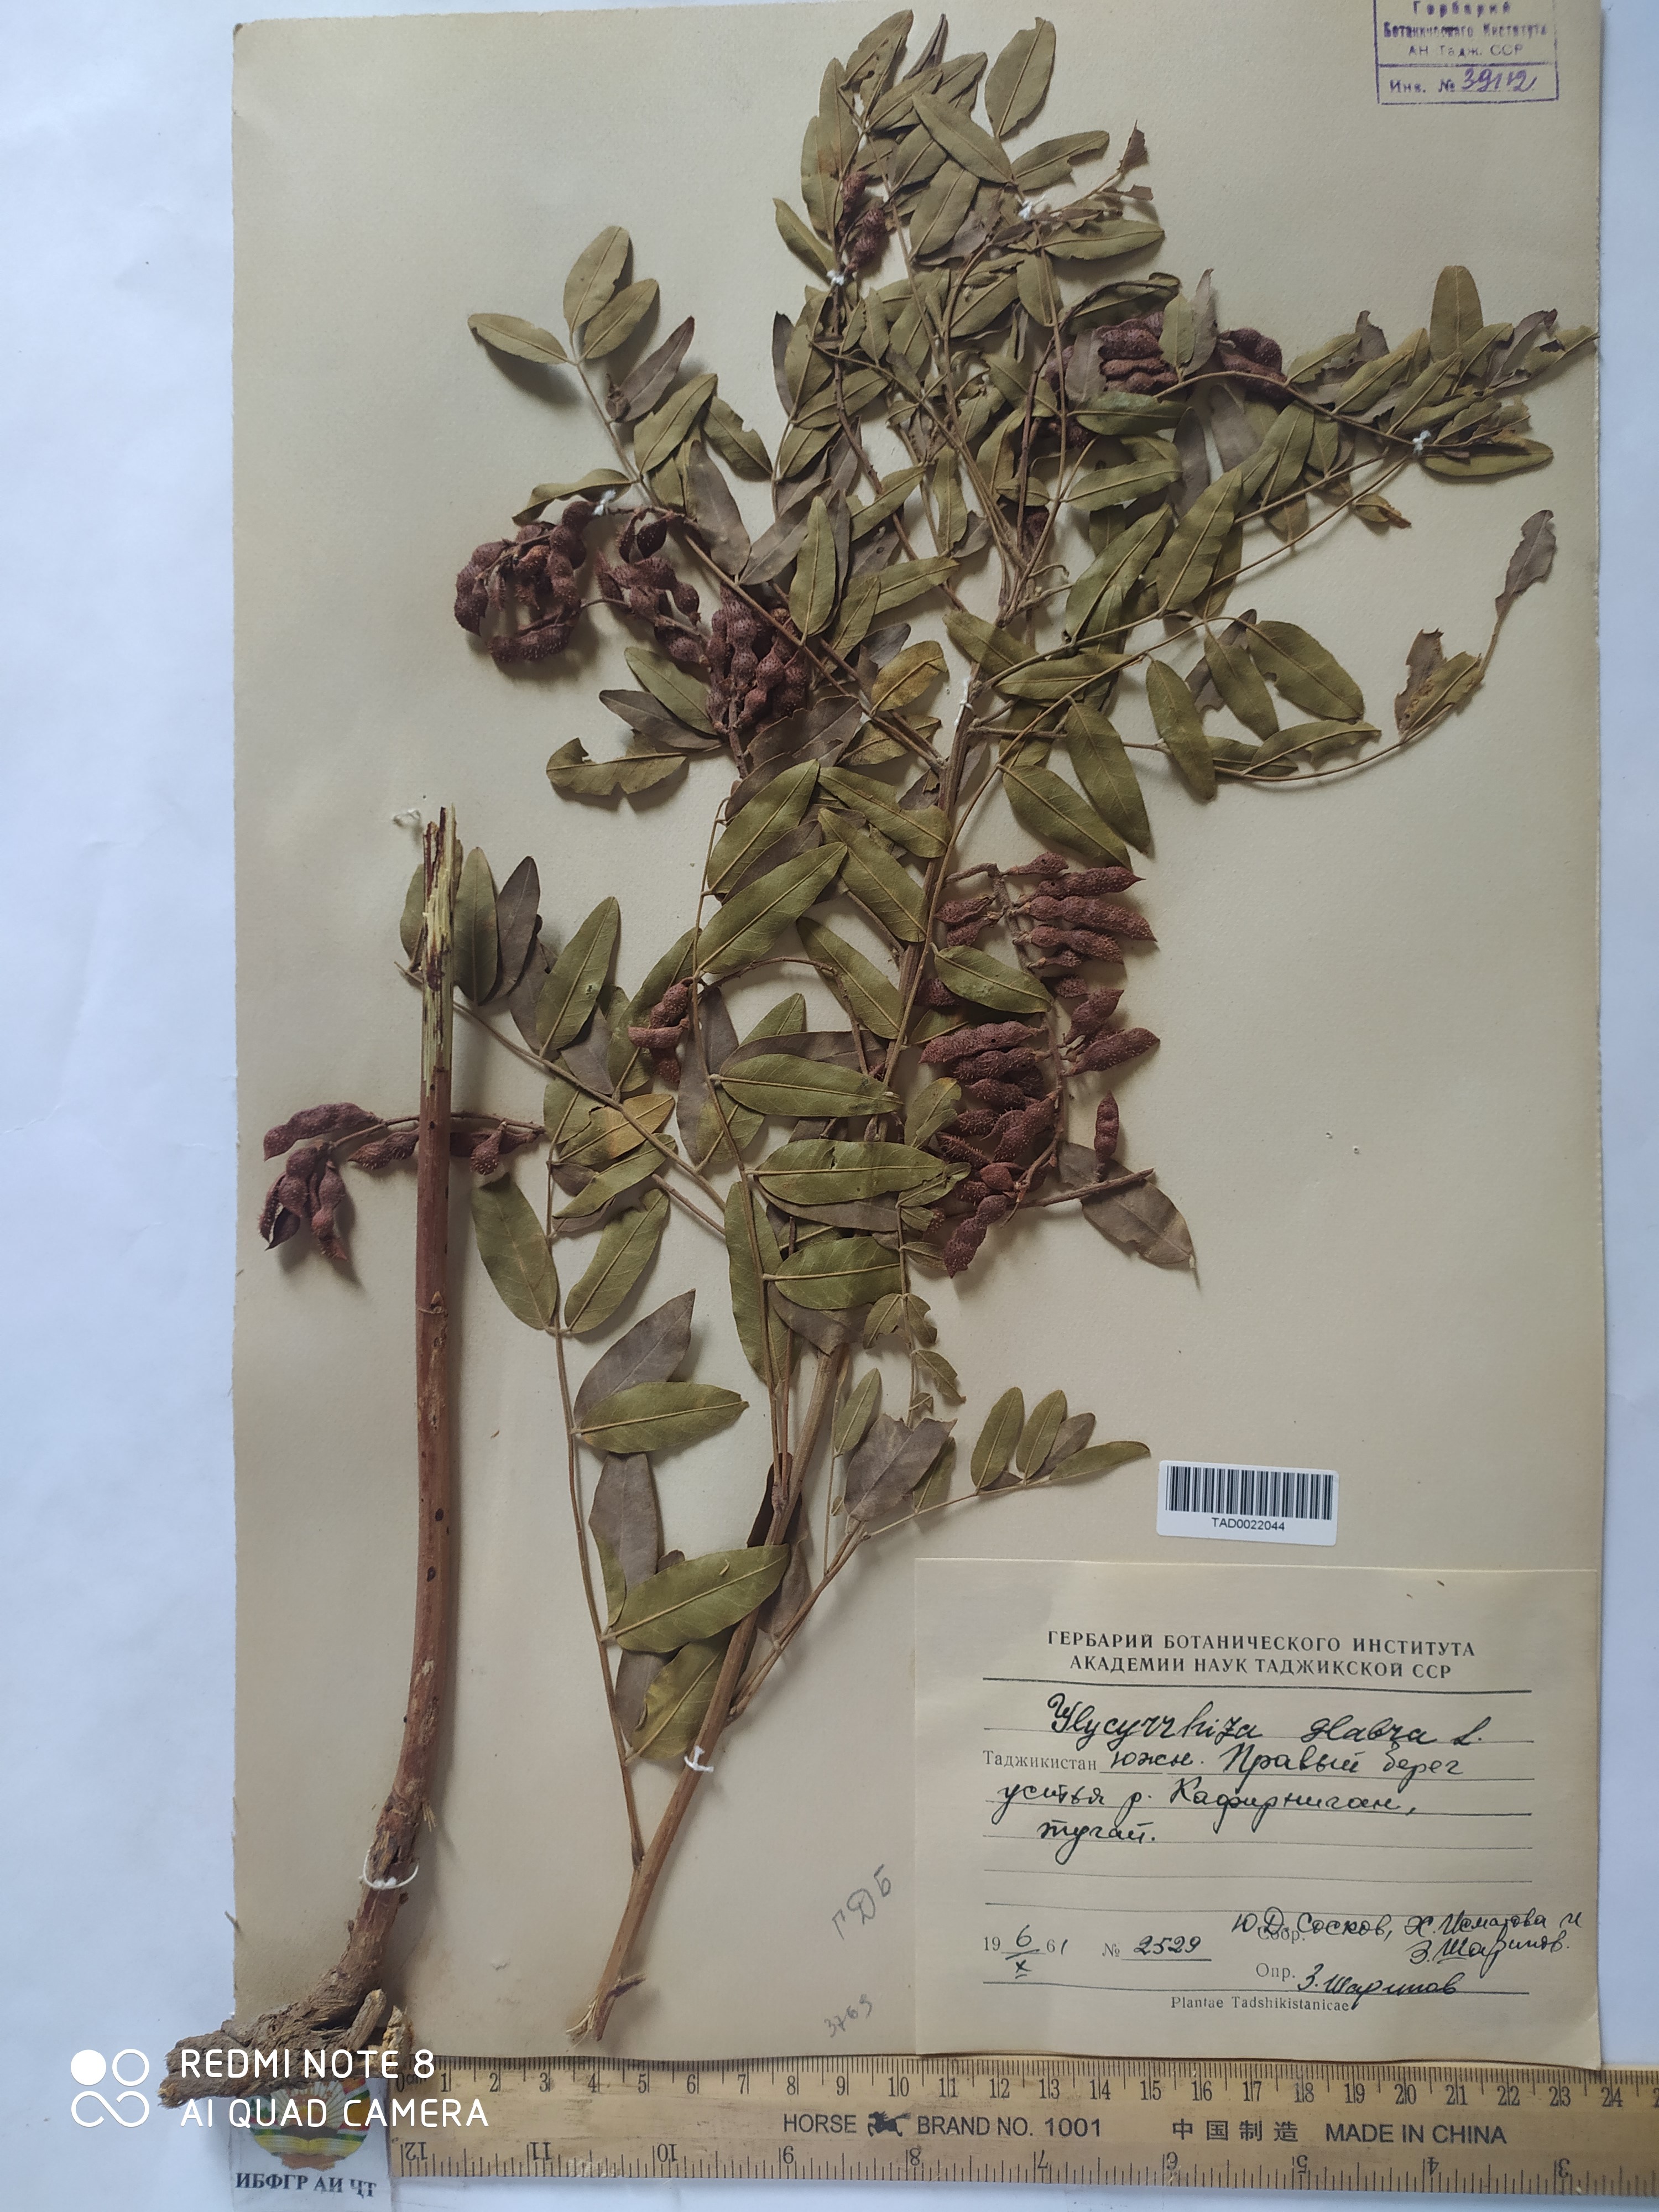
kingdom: Plantae
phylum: Tracheophyta
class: Magnoliopsida
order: Fabales
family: Fabaceae
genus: Glycyrrhiza
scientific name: Glycyrrhiza glabra
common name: Liquorice
